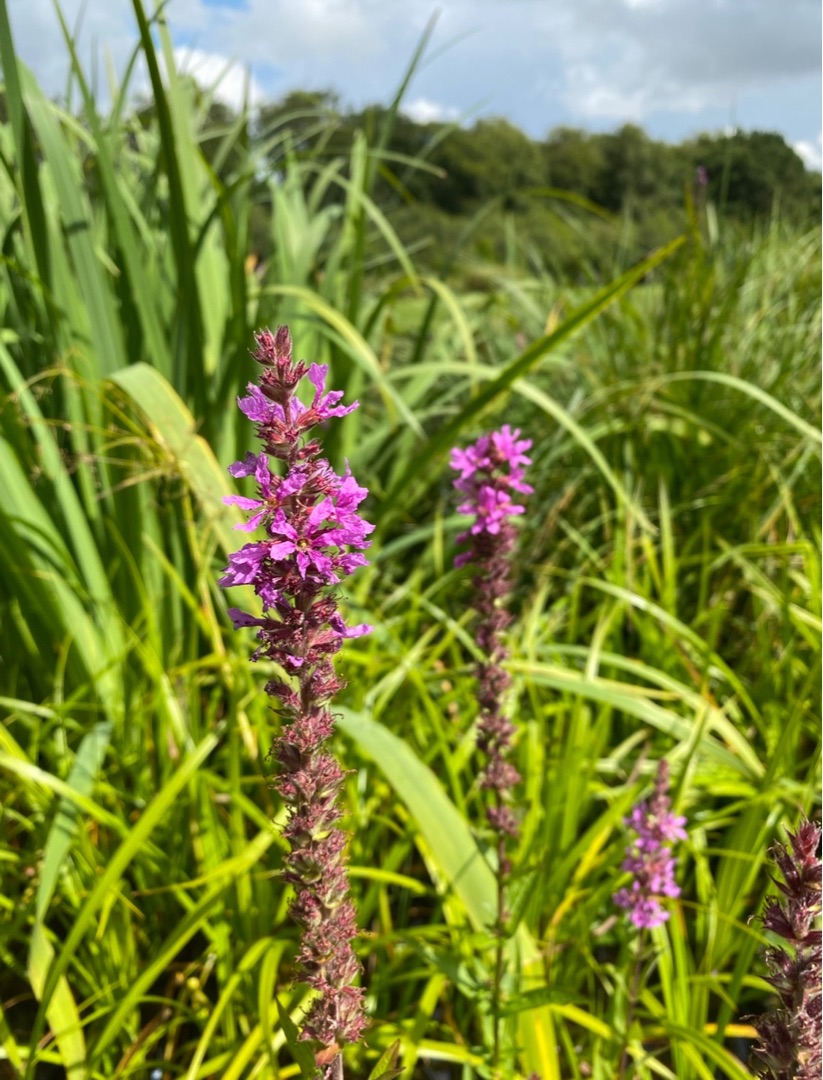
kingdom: Plantae
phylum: Tracheophyta
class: Magnoliopsida
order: Myrtales
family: Lythraceae
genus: Lythrum
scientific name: Lythrum salicaria
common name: Kattehale
